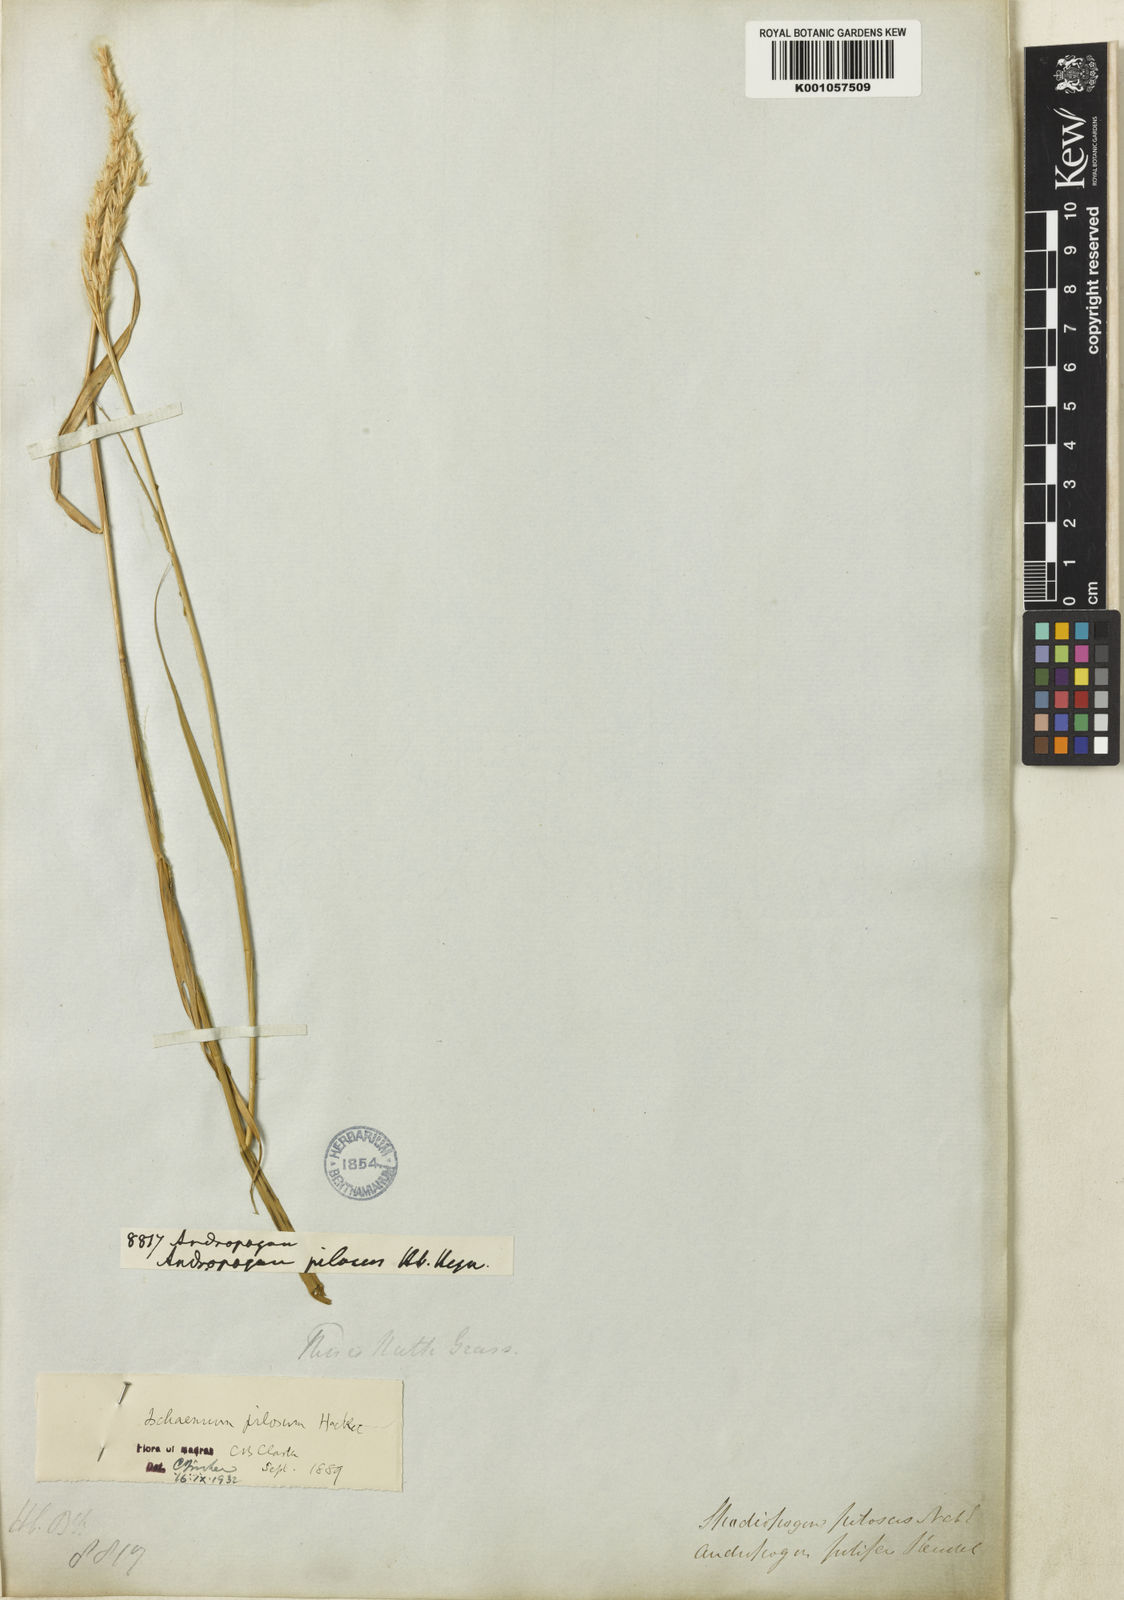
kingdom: Plantae
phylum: Tracheophyta
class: Liliopsida
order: Poales
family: Poaceae
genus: Ischaemum
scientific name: Ischaemum afrum
